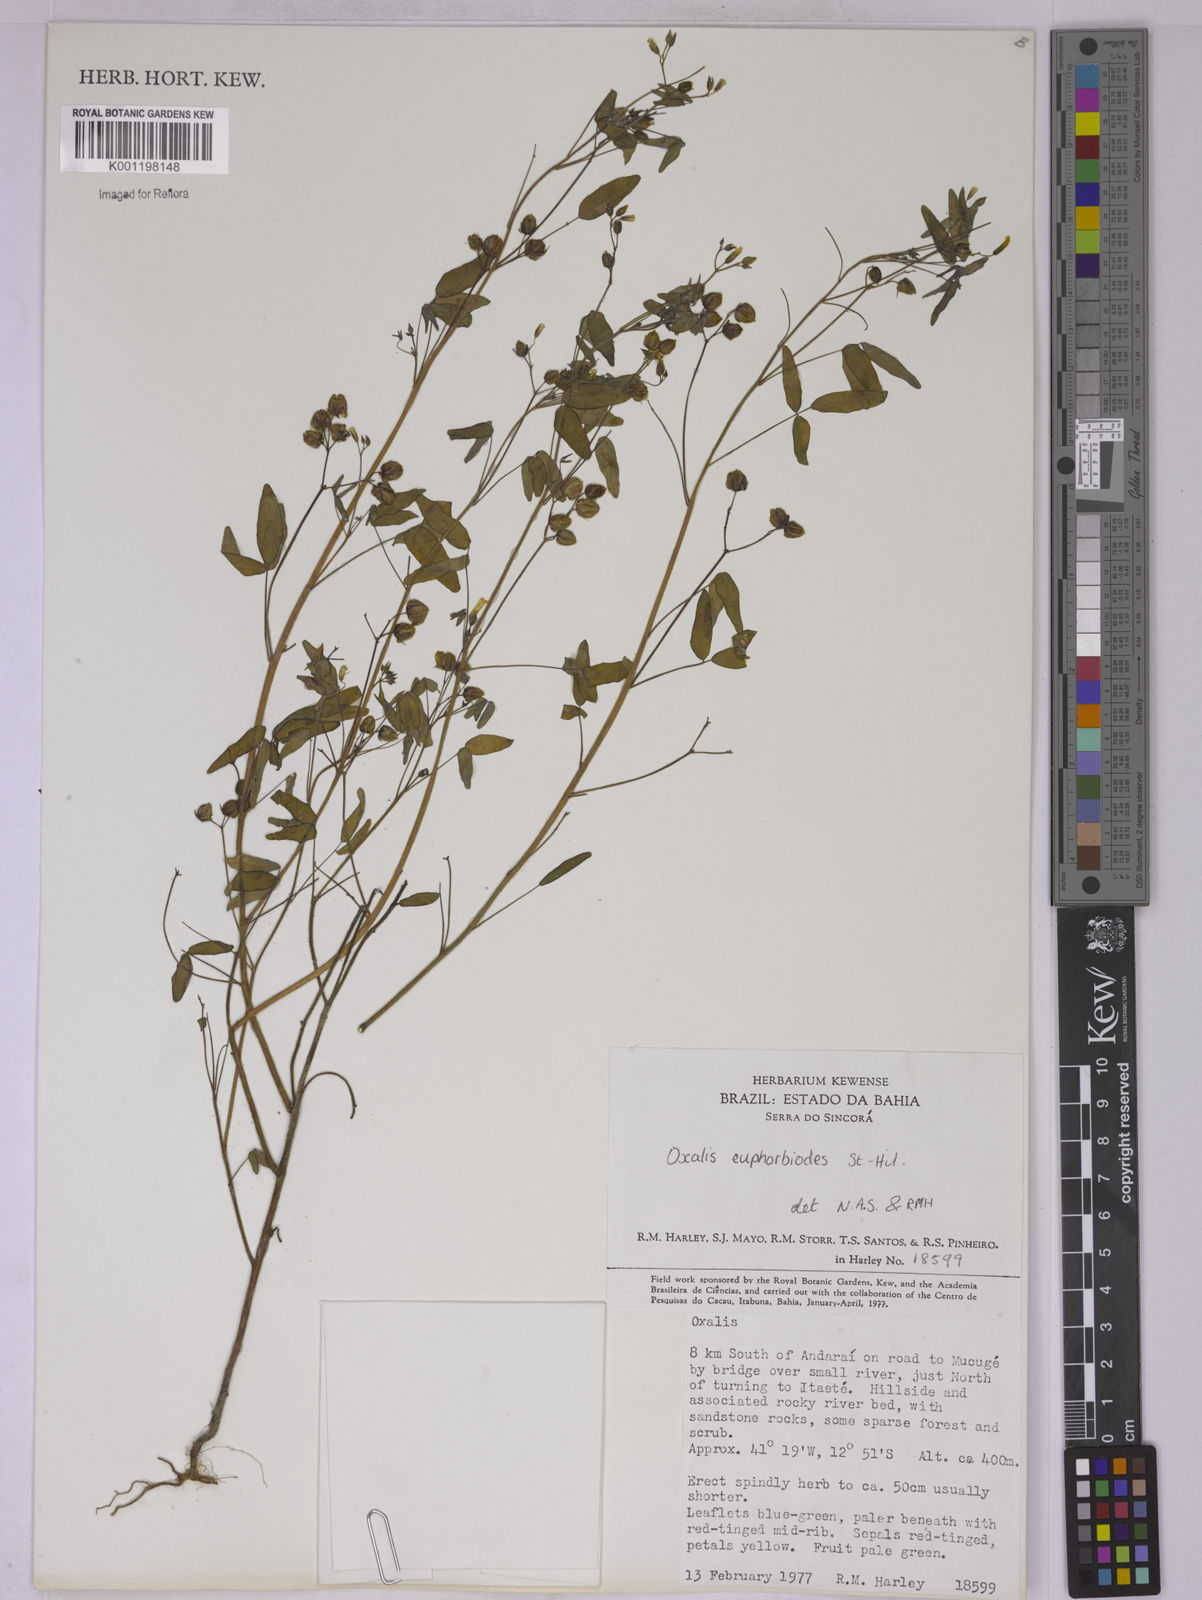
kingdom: Plantae
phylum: Tracheophyta
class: Magnoliopsida
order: Oxalidales
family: Oxalidaceae
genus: Oxalis
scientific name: Oxalis divaricata
